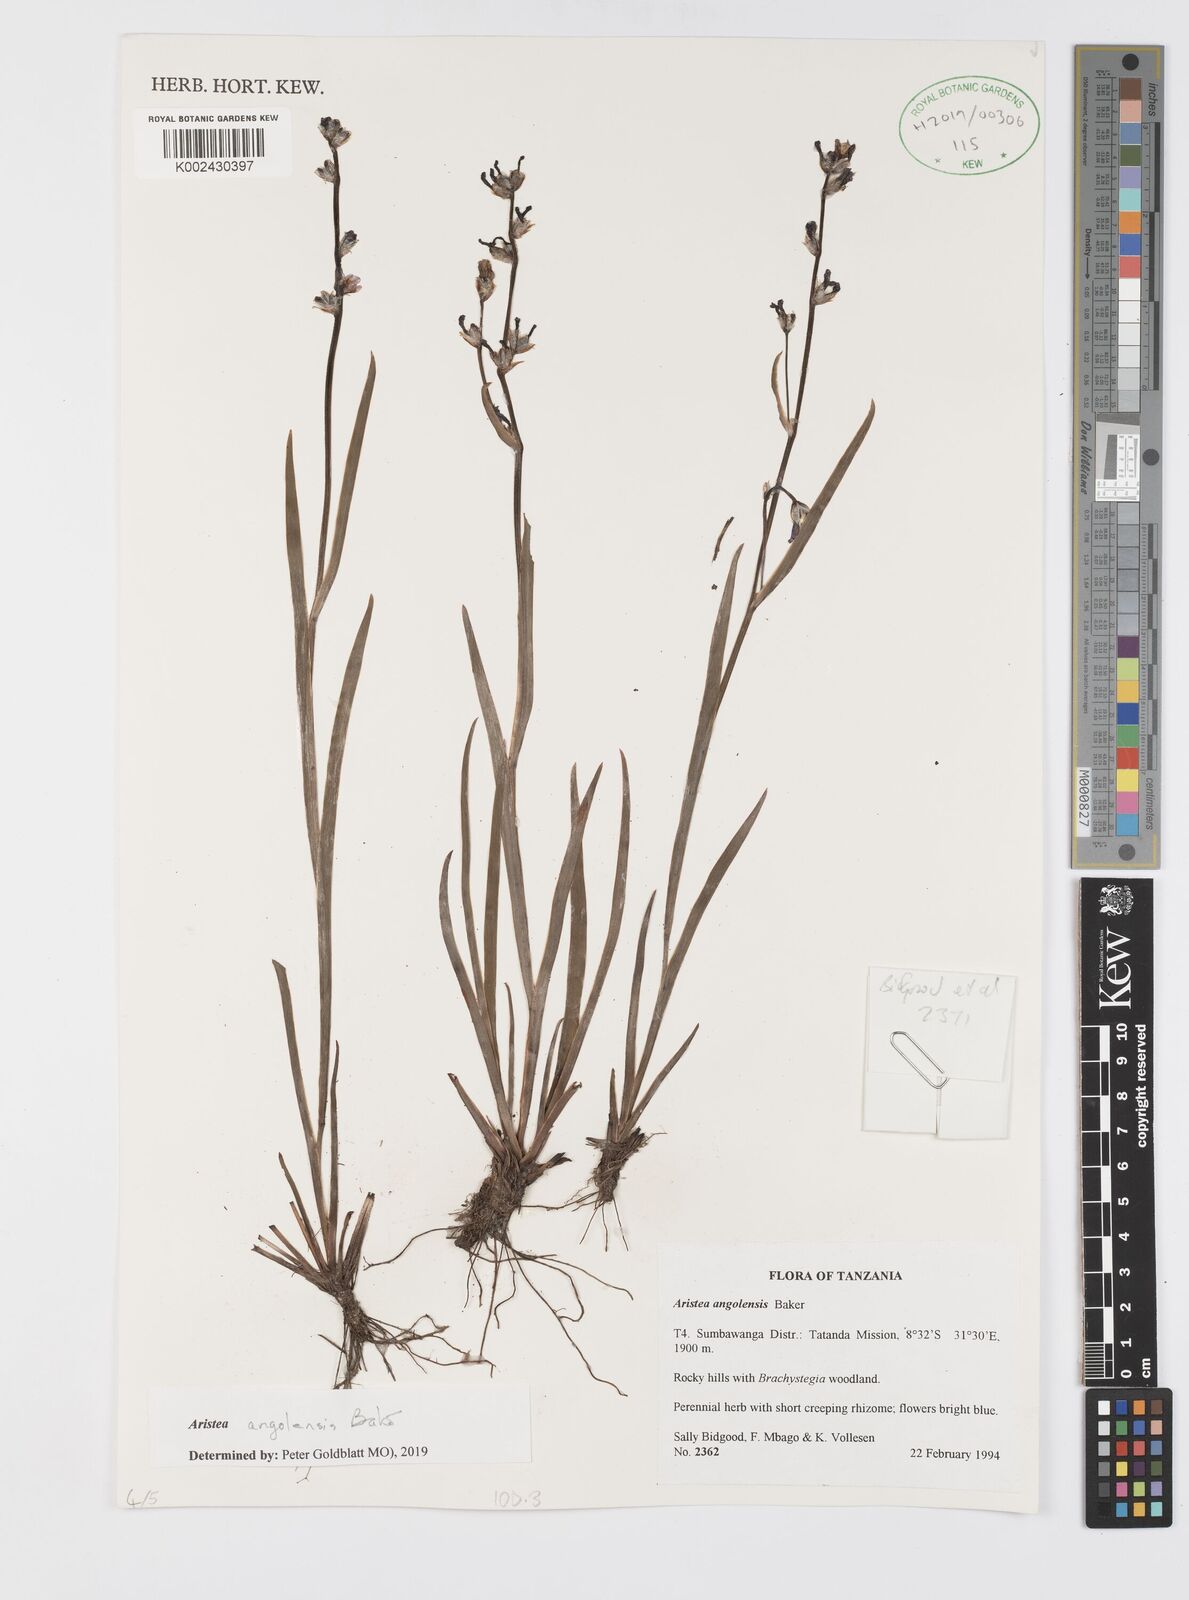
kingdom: Plantae
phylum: Tracheophyta
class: Liliopsida
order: Asparagales
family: Iridaceae
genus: Aristea
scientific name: Aristea angolensis
